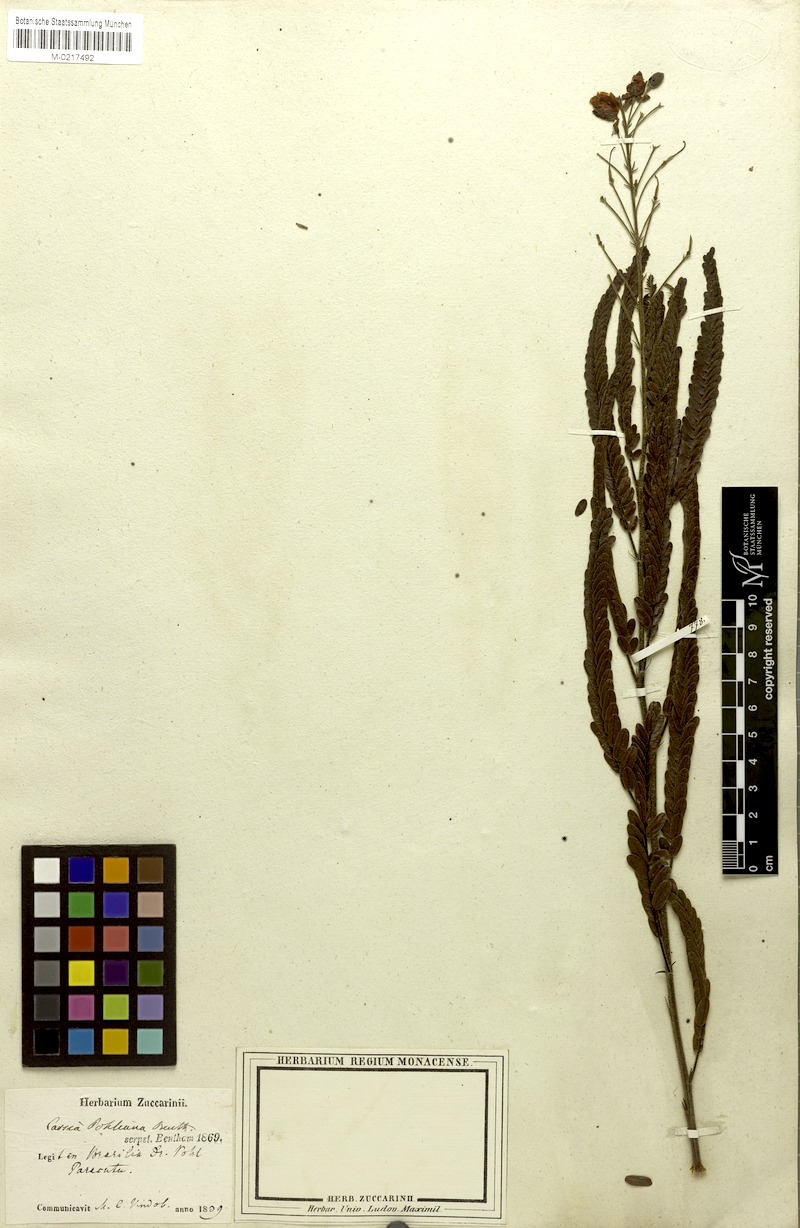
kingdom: Plantae
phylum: Tracheophyta
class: Magnoliopsida
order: Fabales
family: Fabaceae
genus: Chamaecrista
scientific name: Chamaecrista pohliana
